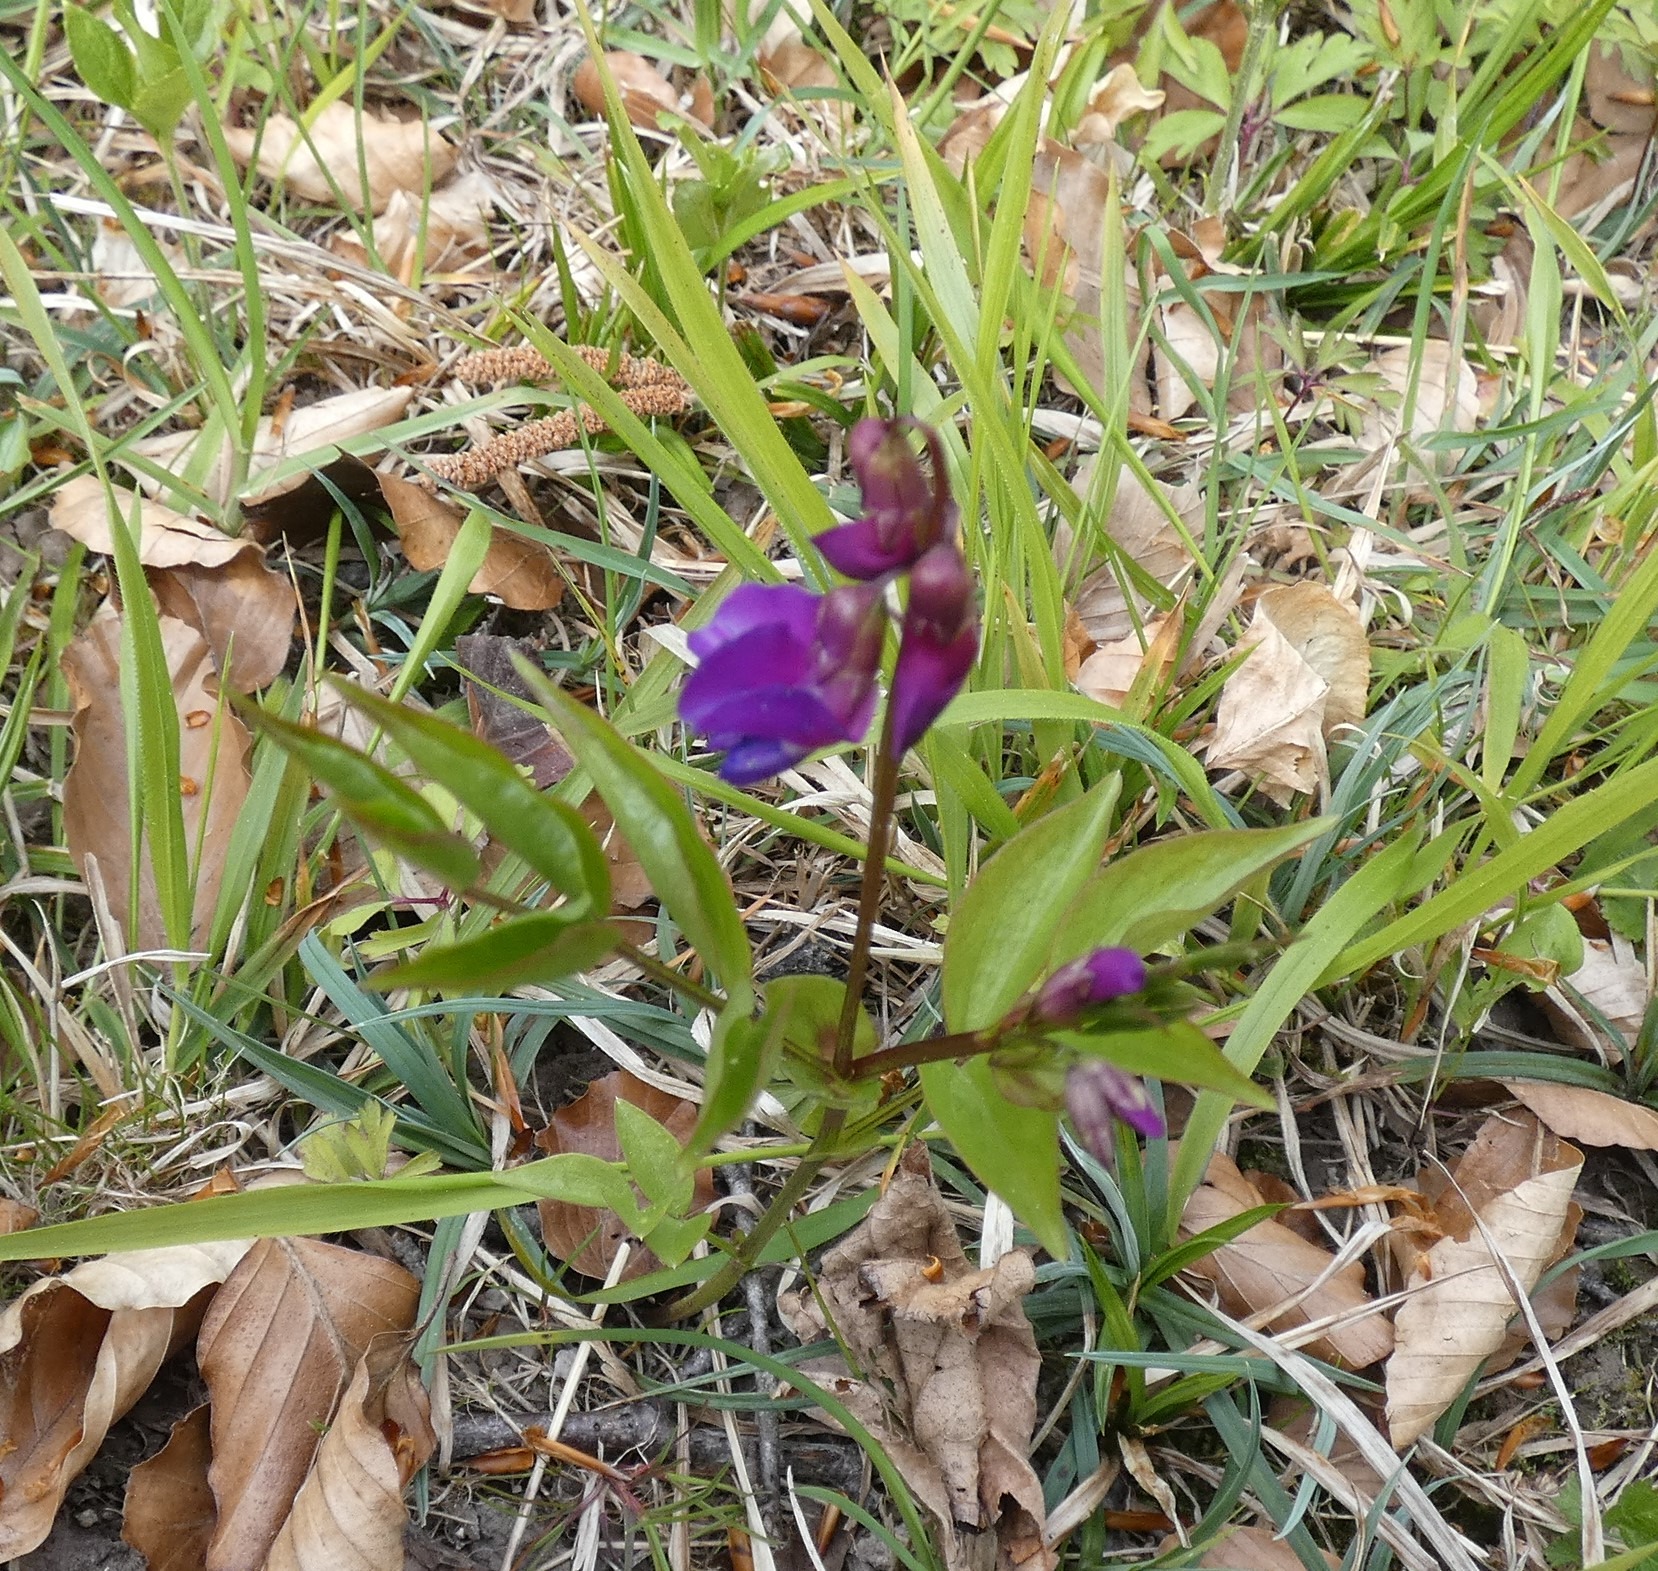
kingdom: Plantae
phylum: Tracheophyta
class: Magnoliopsida
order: Fabales
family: Fabaceae
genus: Lathyrus
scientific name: Lathyrus vernus
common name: Vår-fladbælg
